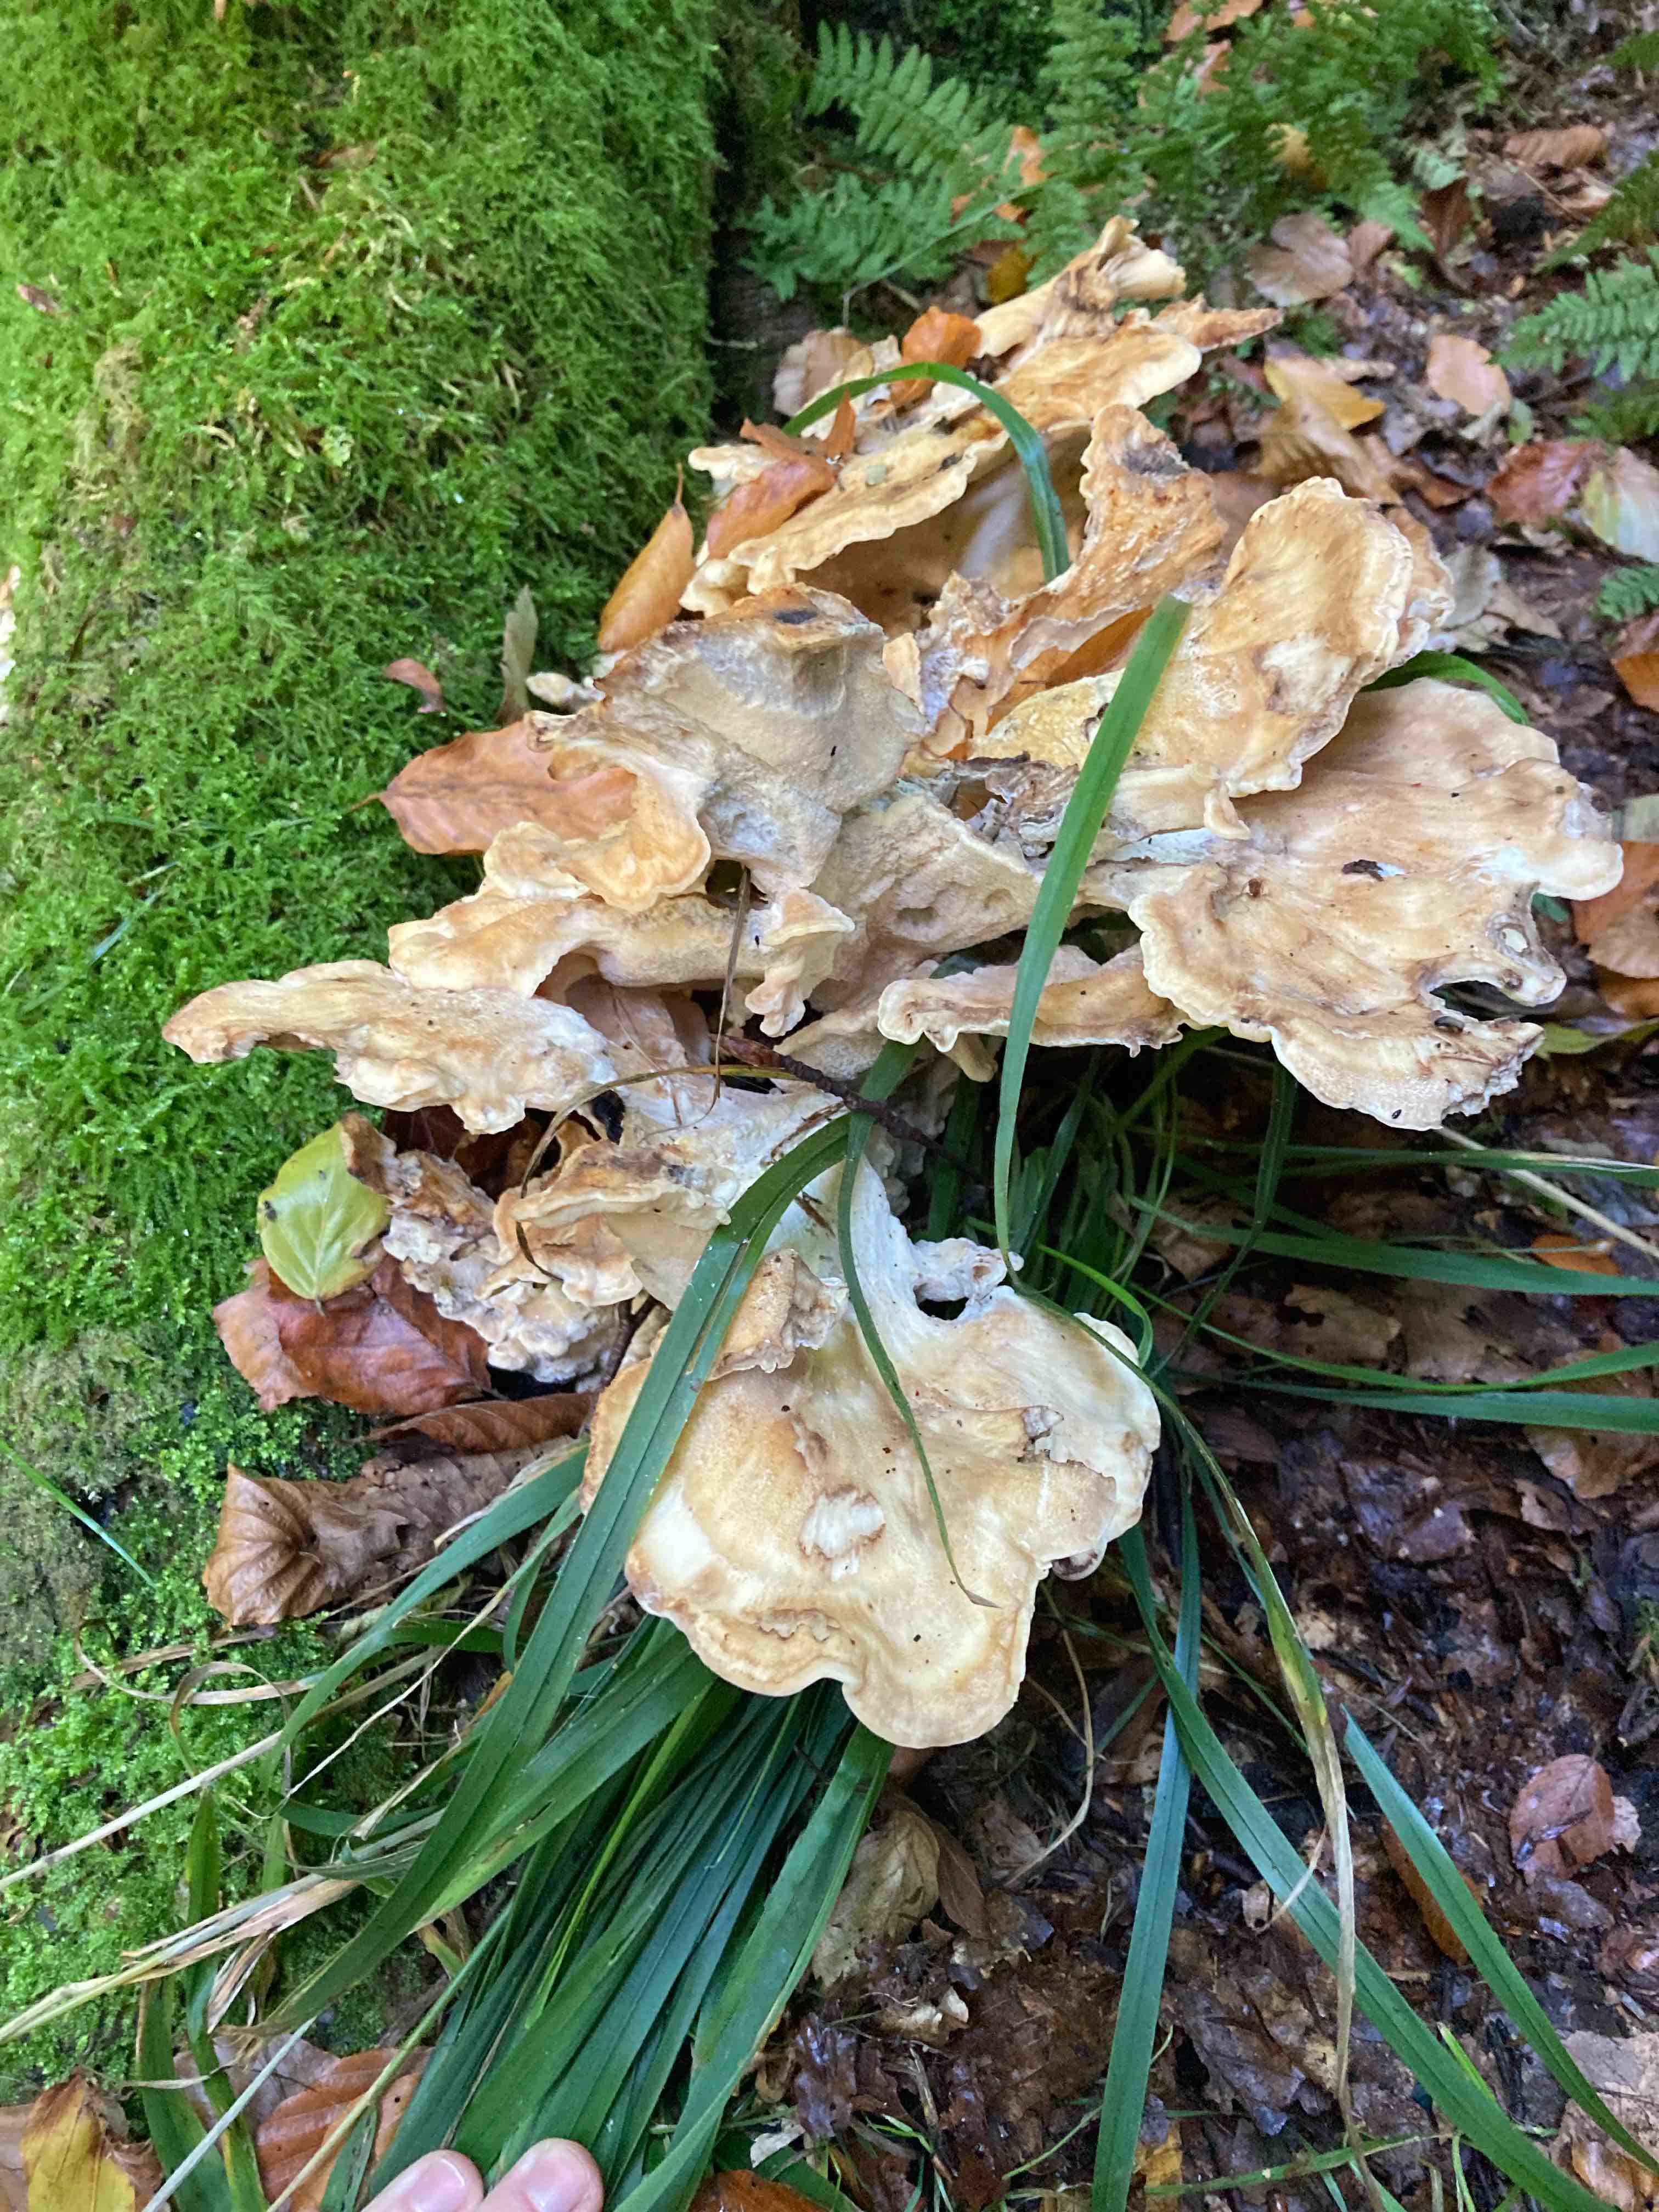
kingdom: Fungi
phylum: Basidiomycota
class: Agaricomycetes
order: Polyporales
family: Meripilaceae
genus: Meripilus
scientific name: Meripilus giganteus
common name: kæmpeporesvamp
